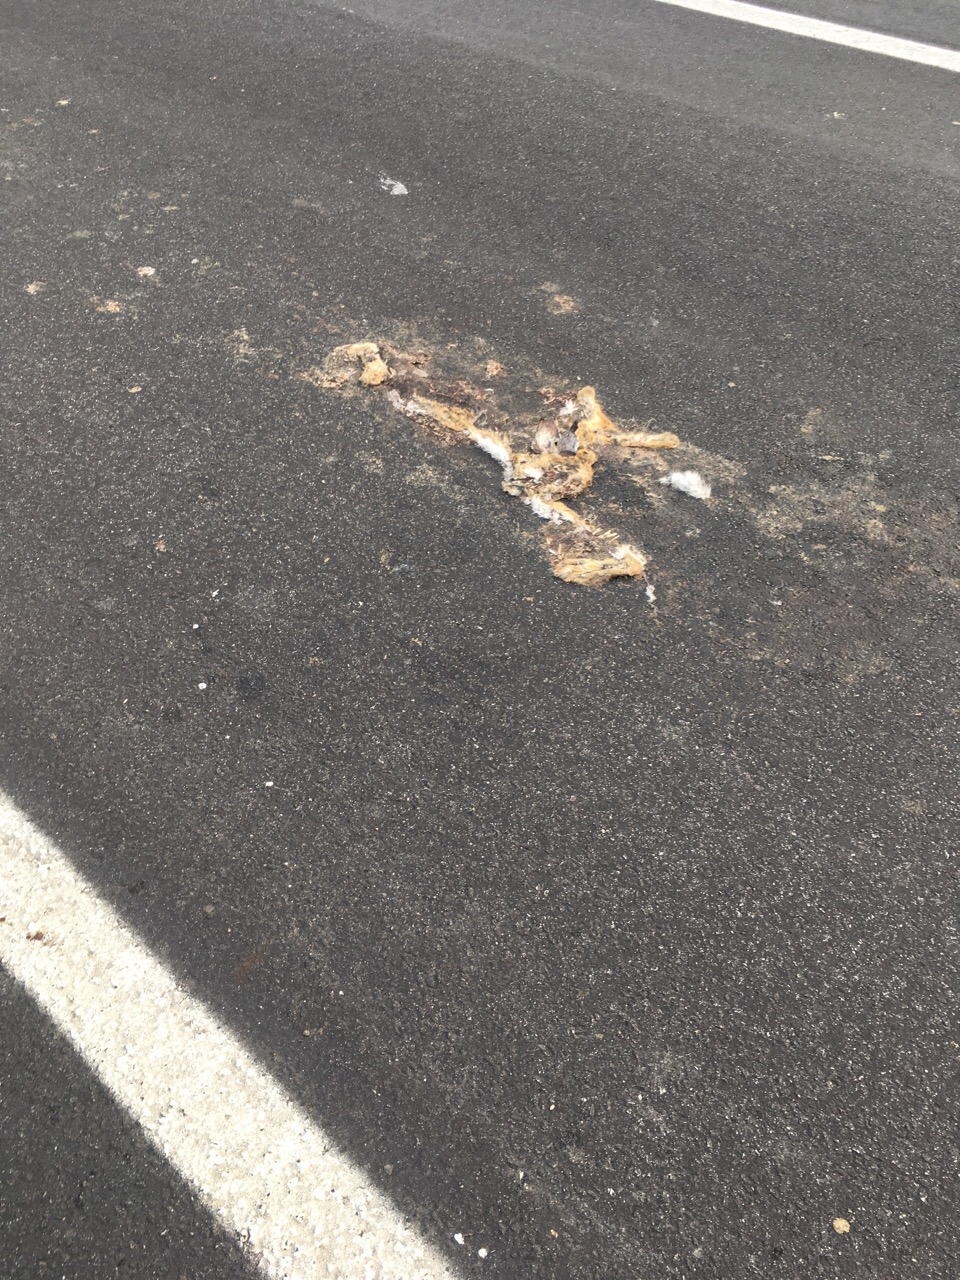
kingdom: Animalia
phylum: Chordata
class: Mammalia
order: Lagomorpha
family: Leporidae
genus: Lepus
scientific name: Lepus europaeus
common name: European hare
